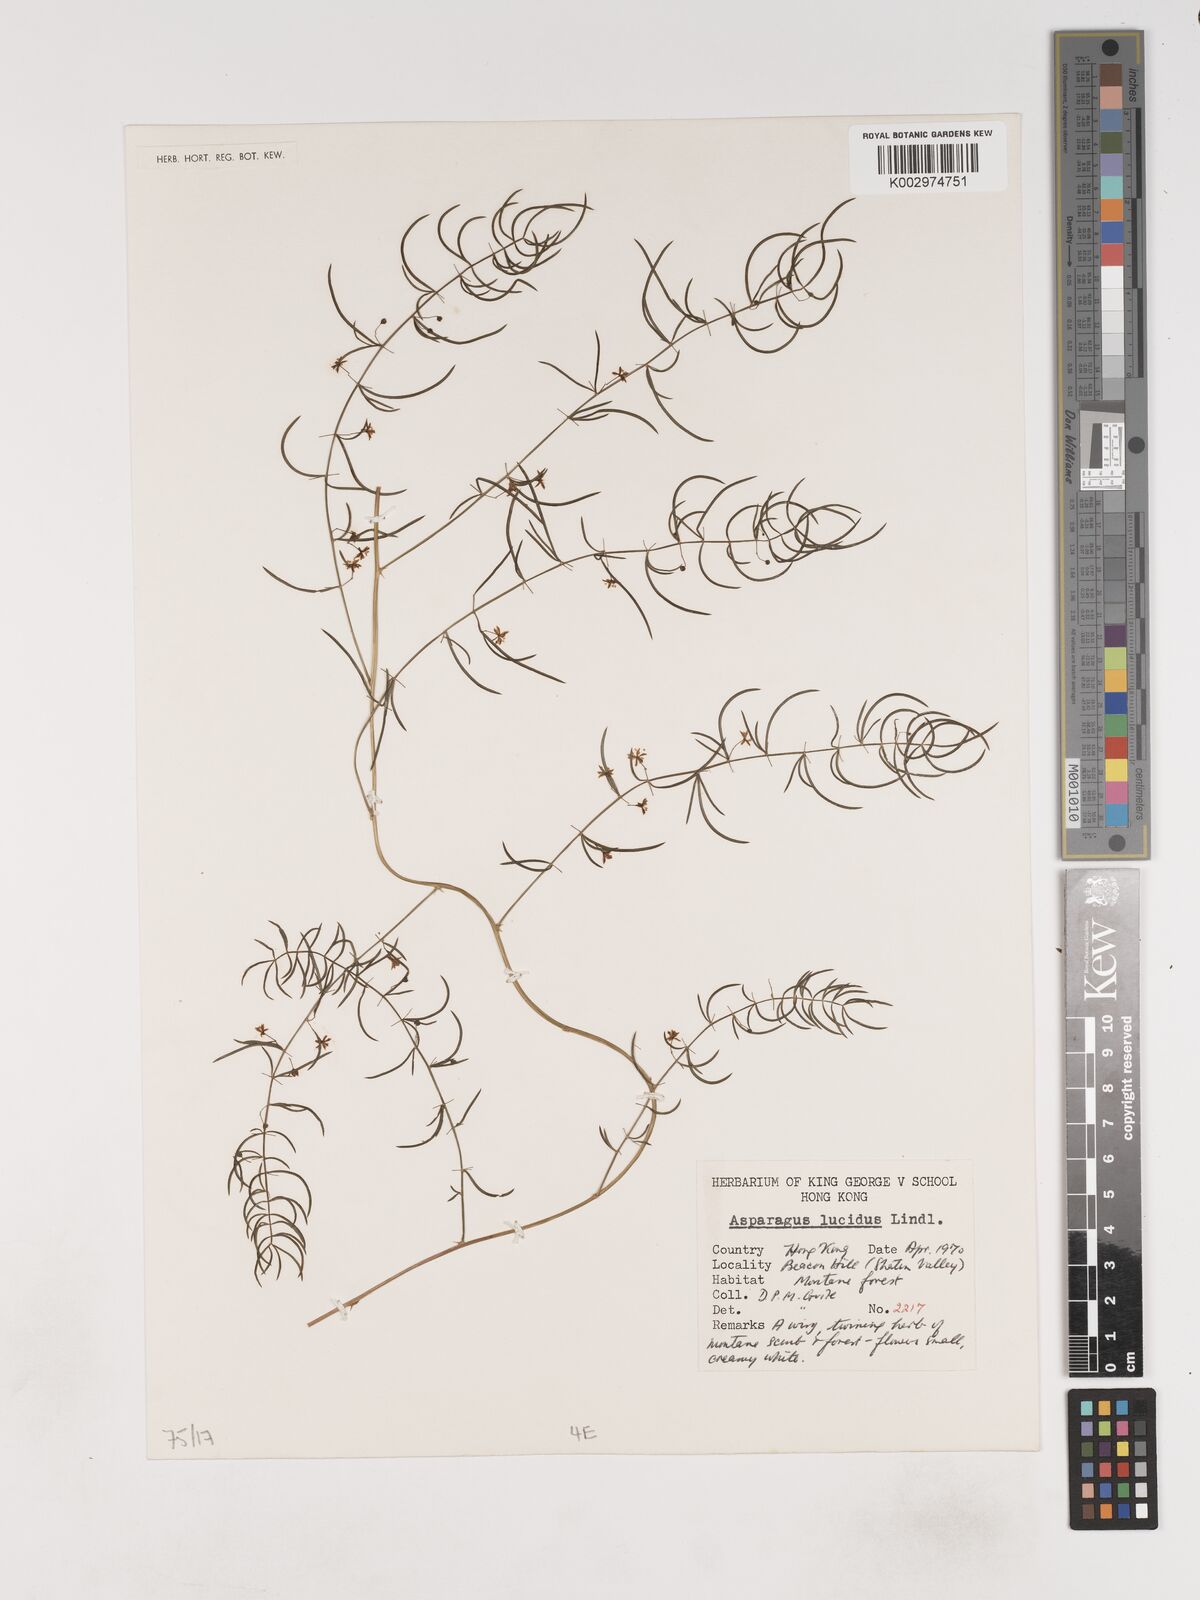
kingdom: Plantae
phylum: Tracheophyta
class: Liliopsida
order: Asparagales
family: Asparagaceae
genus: Asparagus
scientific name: Asparagus
